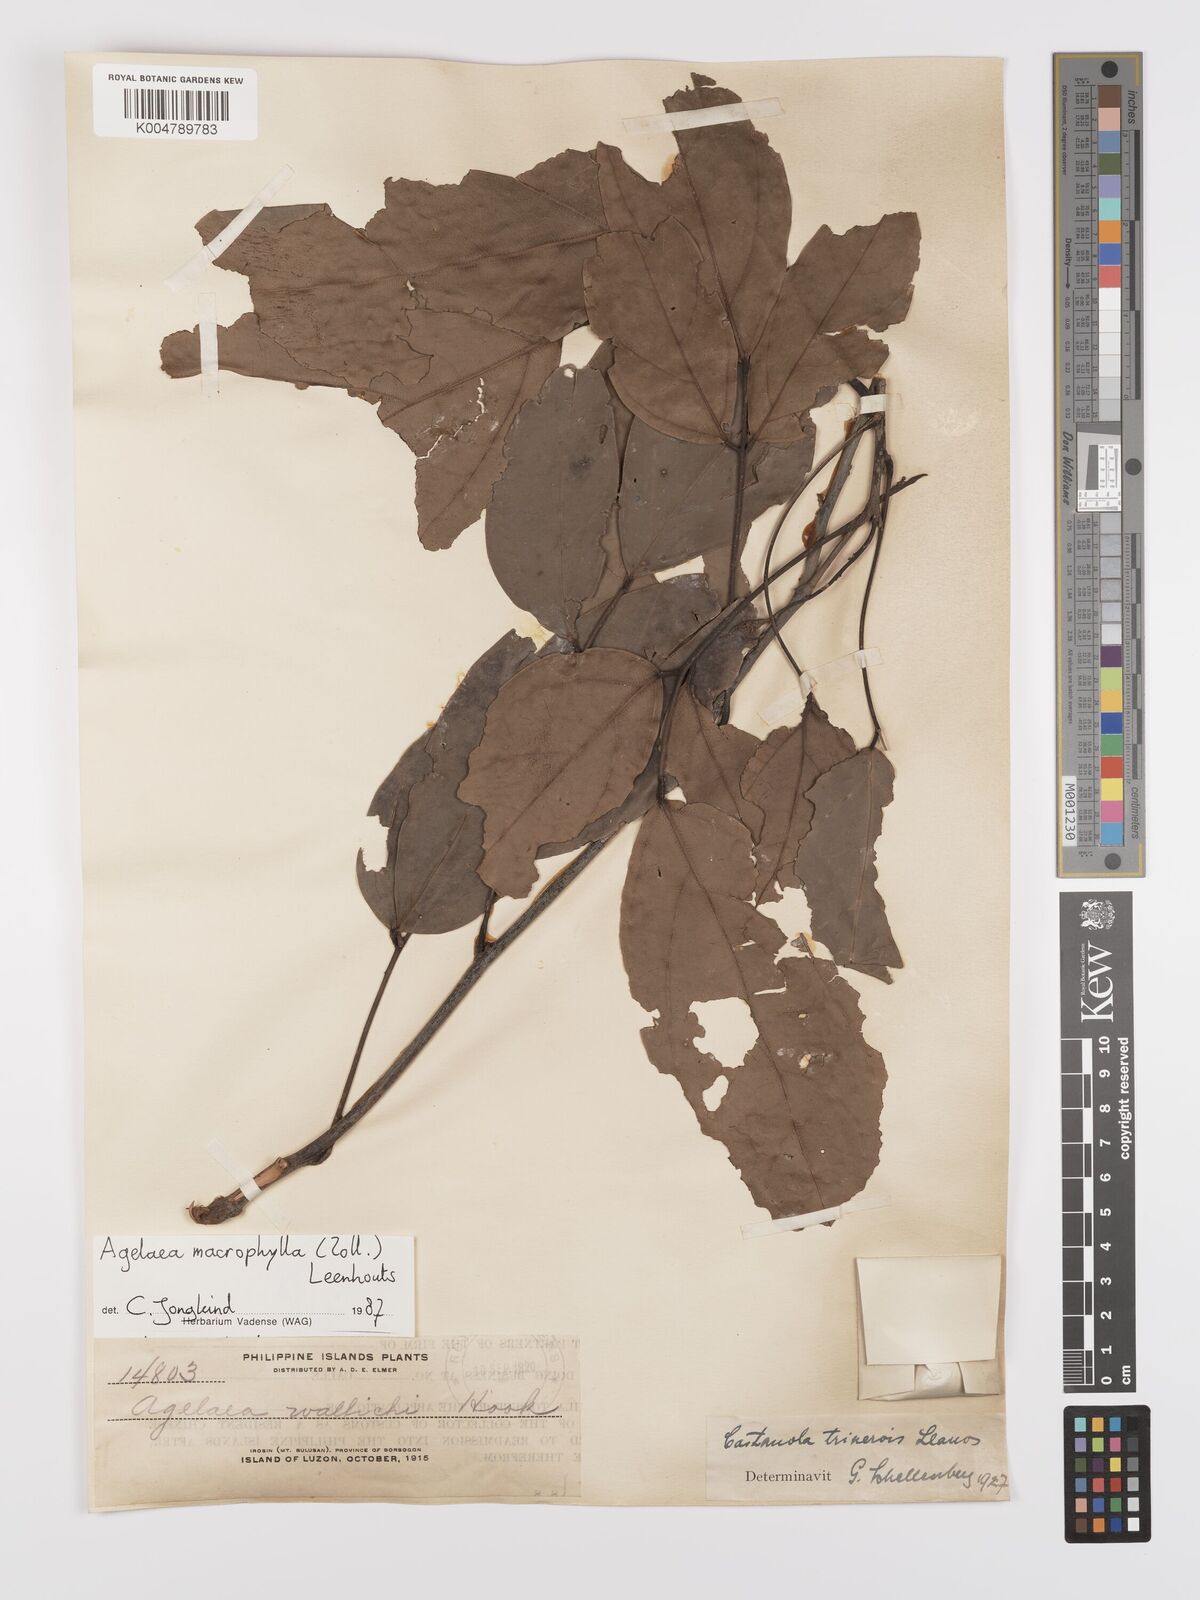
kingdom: Plantae
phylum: Tracheophyta
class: Magnoliopsida
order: Oxalidales
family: Connaraceae
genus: Agelaea
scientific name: Agelaea trinervis
